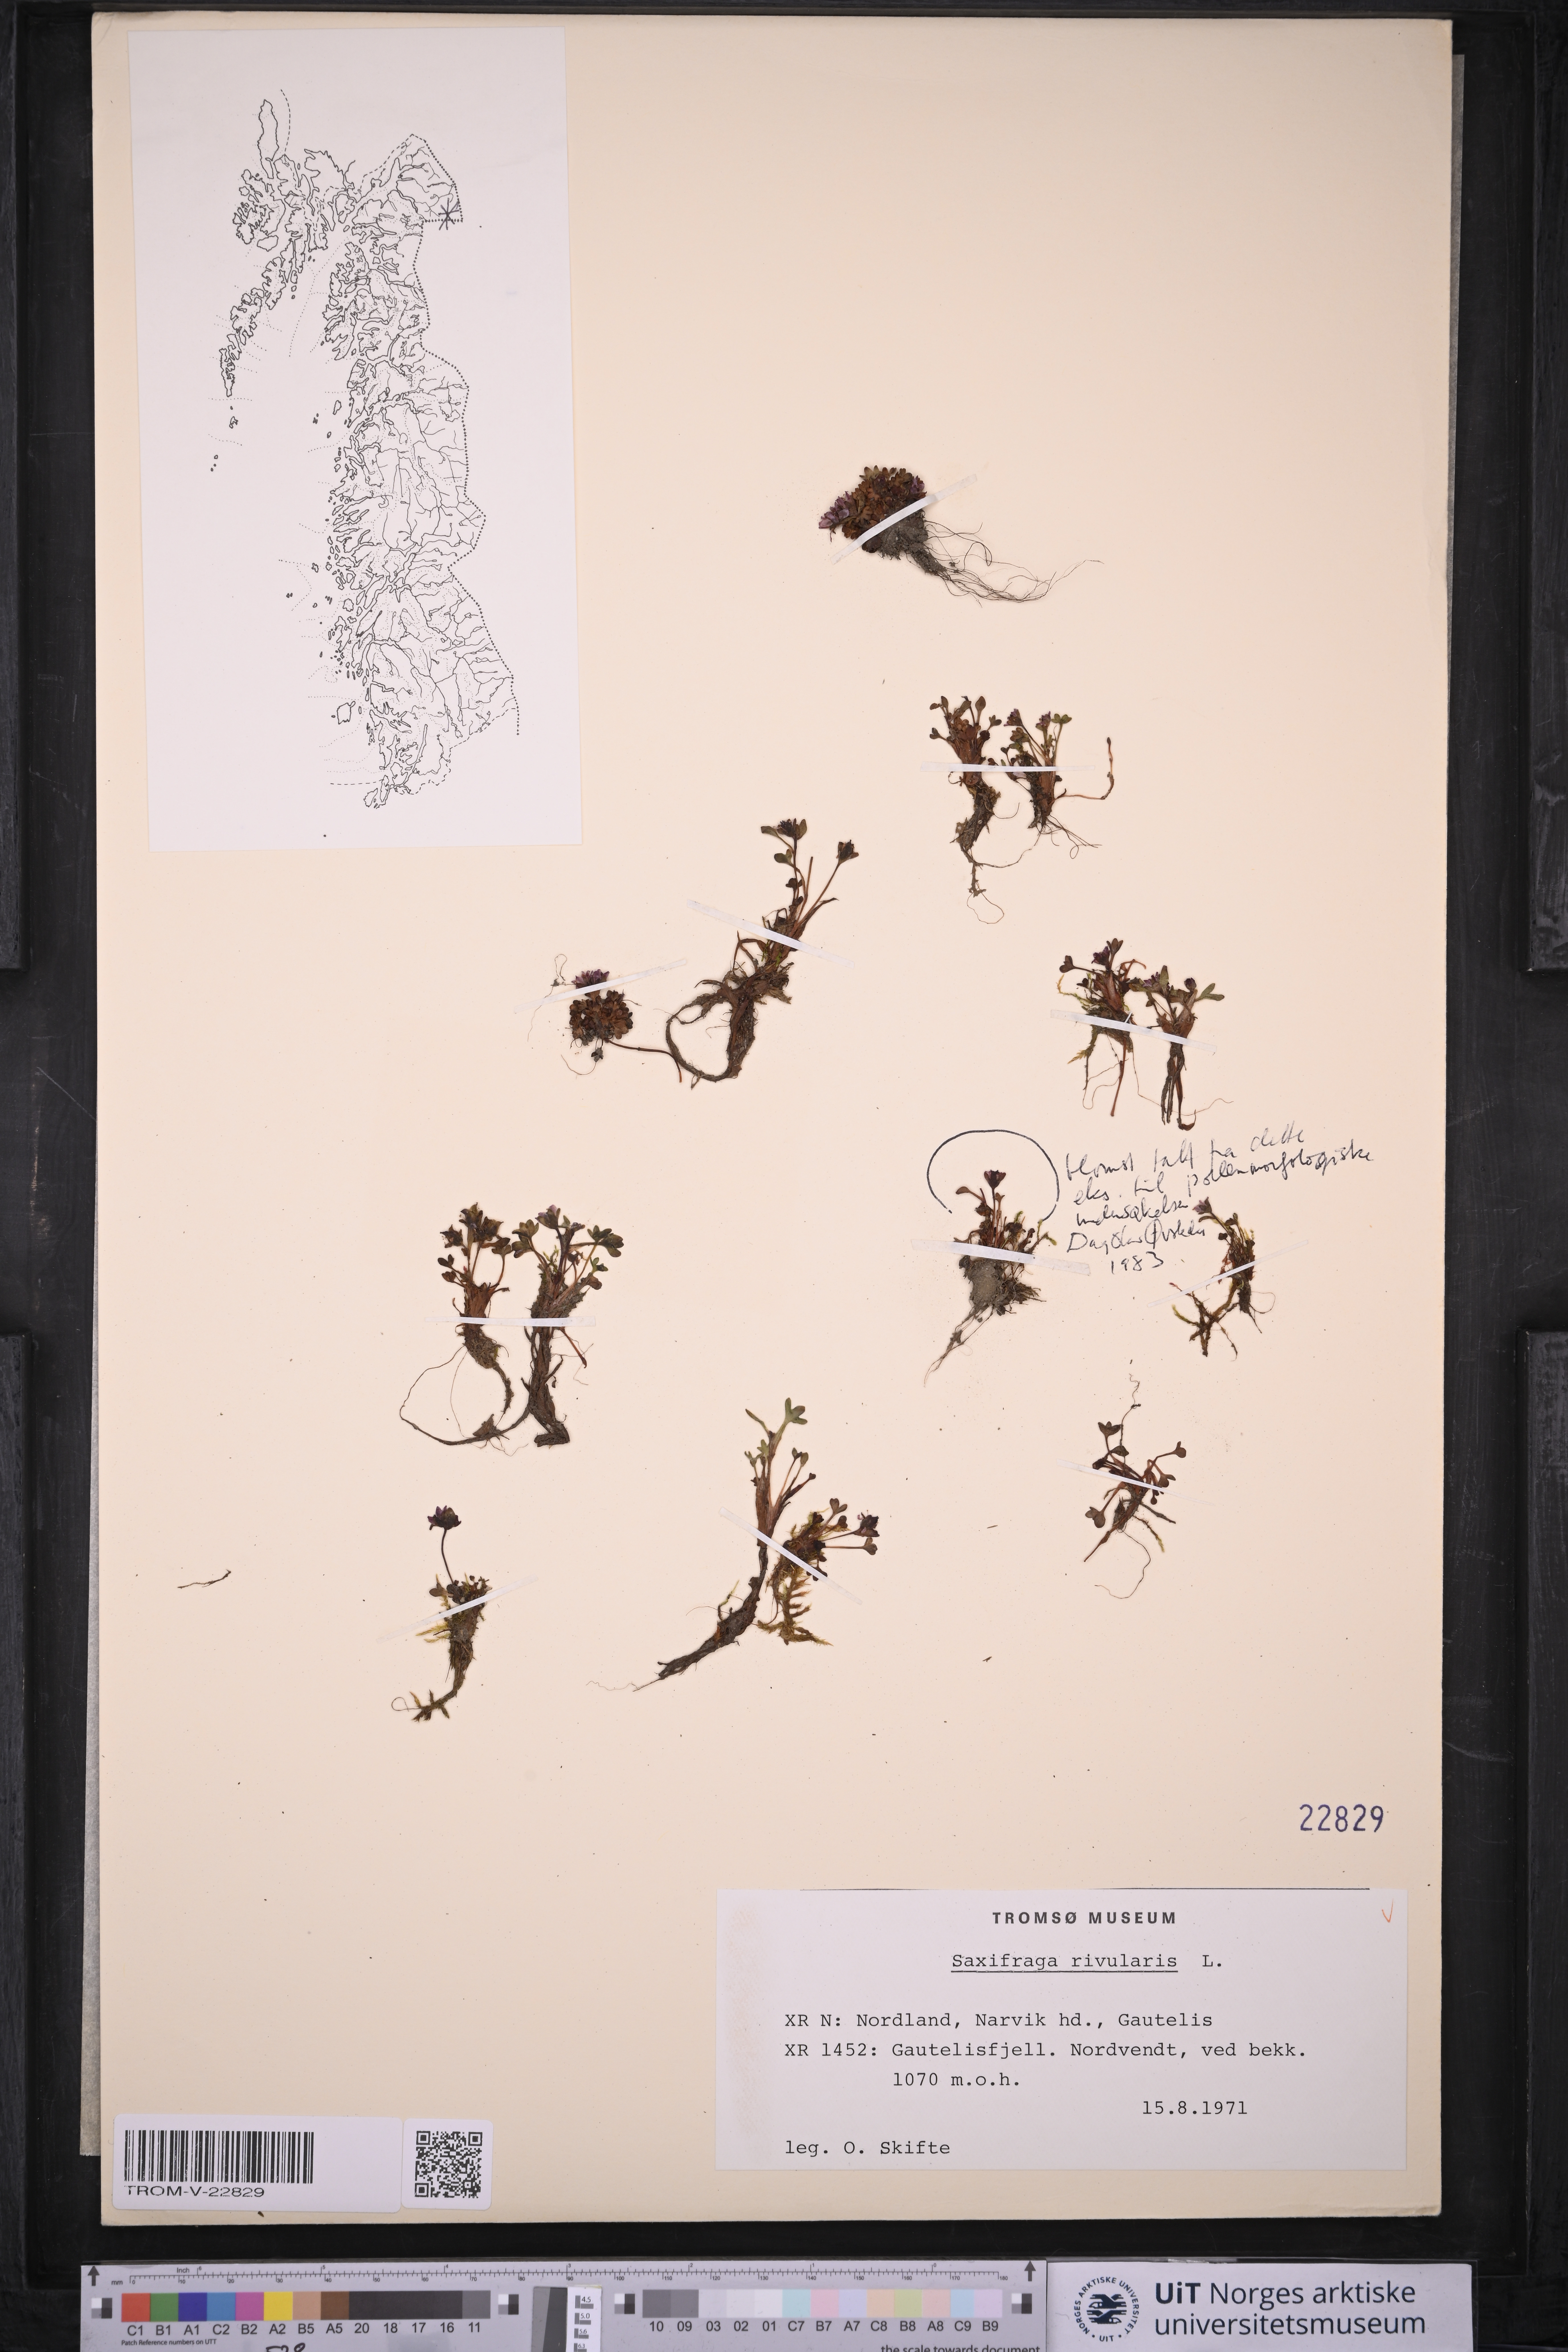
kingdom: Plantae
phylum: Tracheophyta
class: Magnoliopsida
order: Saxifragales
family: Saxifragaceae
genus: Saxifraga
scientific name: Saxifraga rivularis
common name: Highland saxifrage
